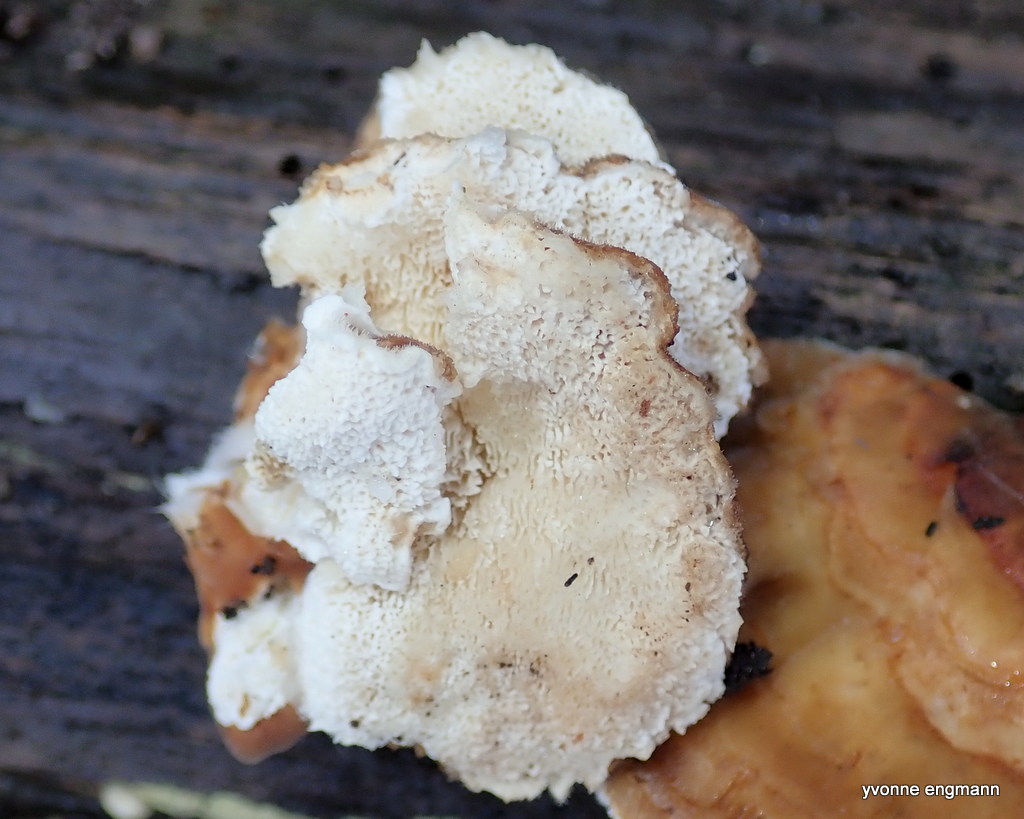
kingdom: Fungi
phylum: Basidiomycota
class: Agaricomycetes
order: Polyporales
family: Polyporaceae
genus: Trametes
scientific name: Trametes
